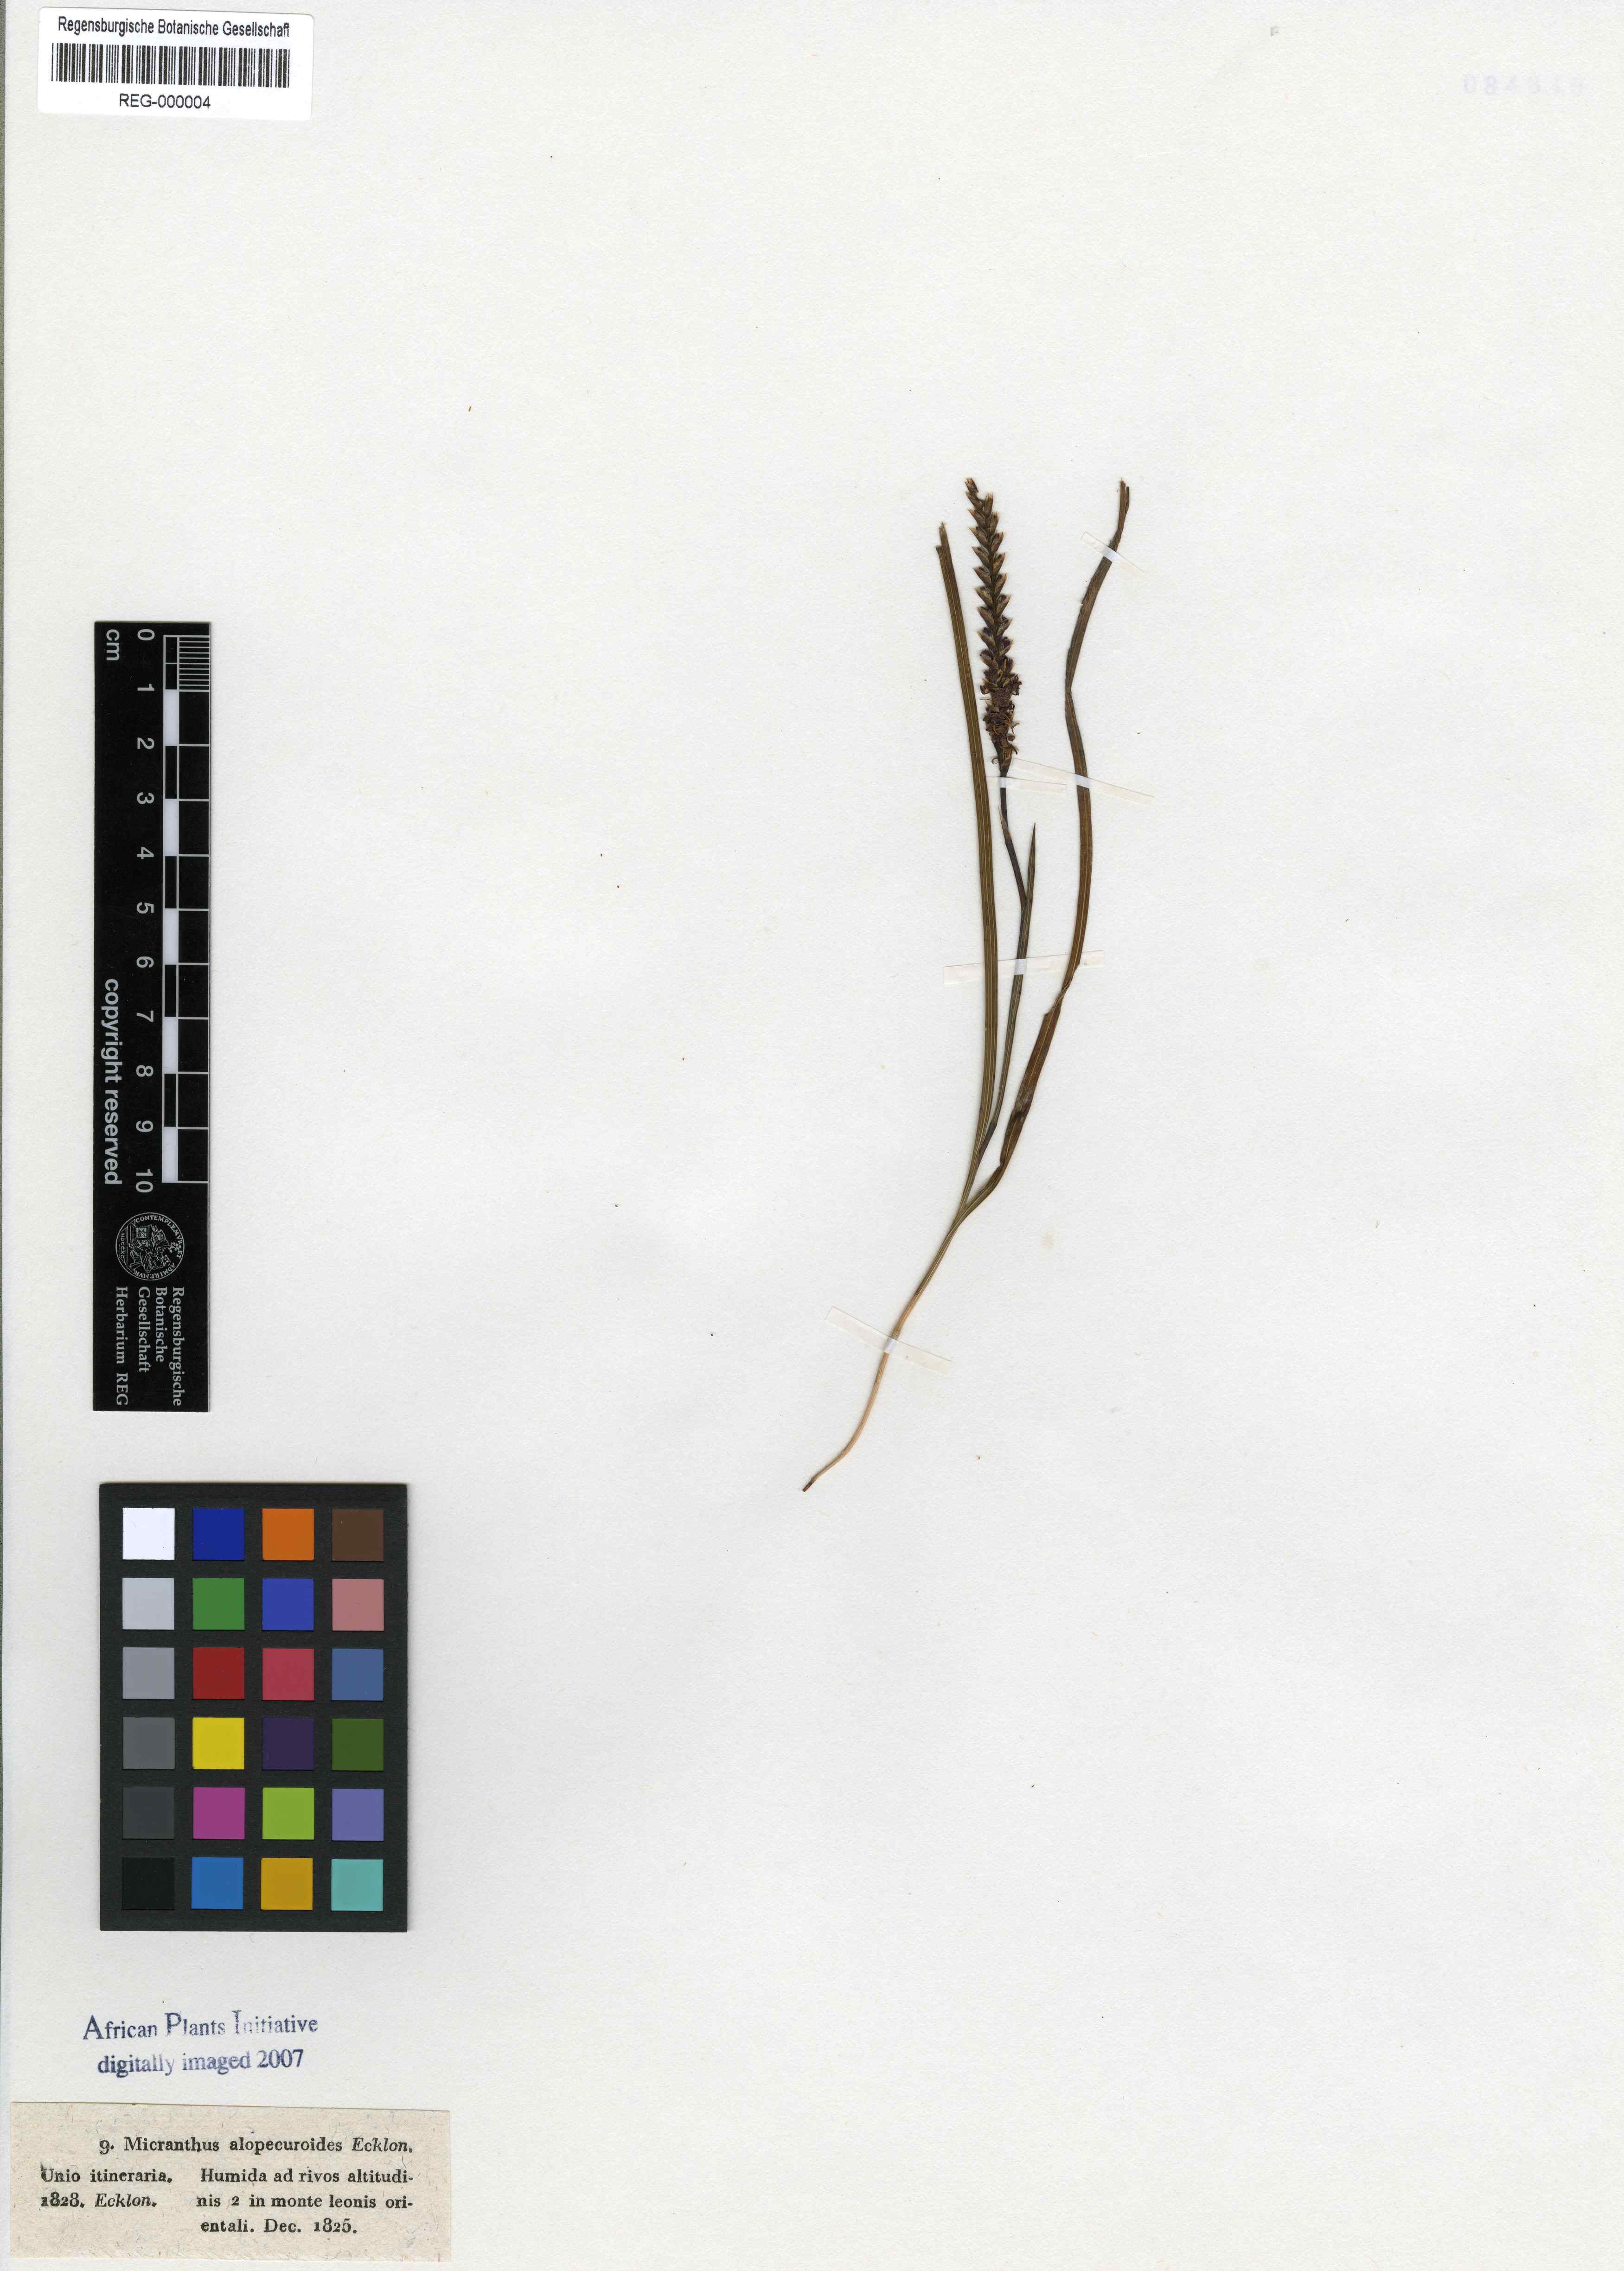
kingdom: Plantae
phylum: Tracheophyta
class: Liliopsida
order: Asparagales
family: Iridaceae
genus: Micranthus
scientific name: Micranthus alopecuroides
